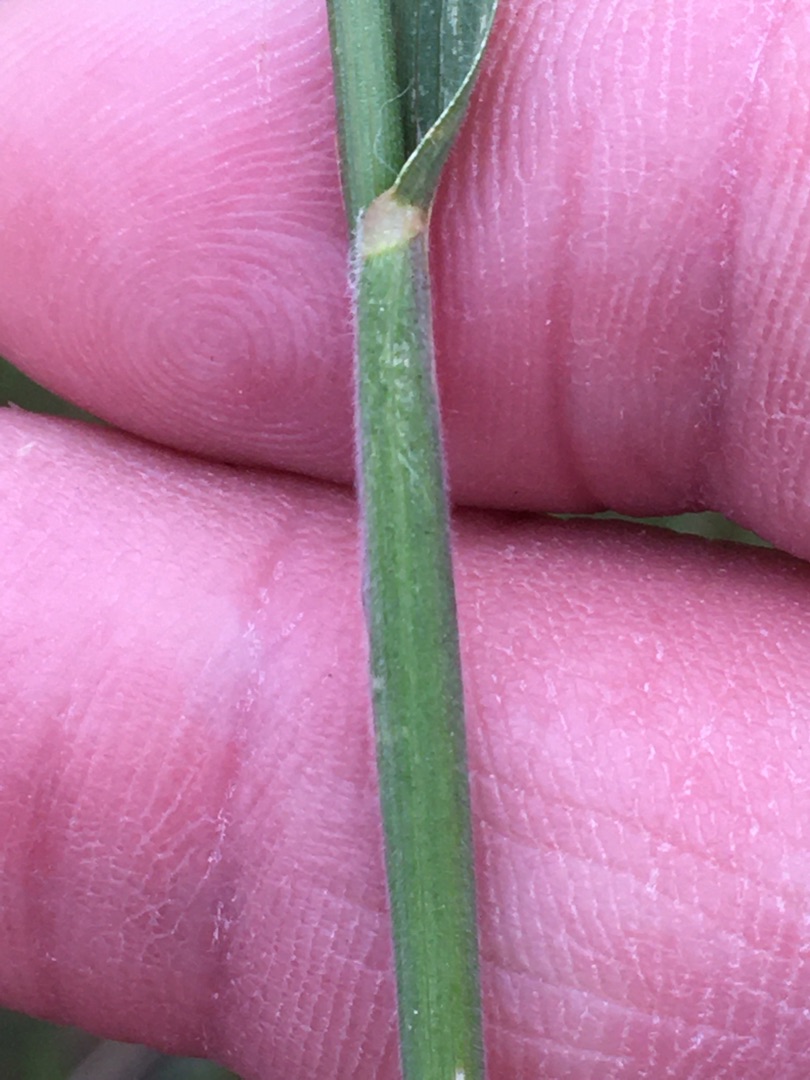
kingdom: Plantae
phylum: Tracheophyta
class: Liliopsida
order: Poales
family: Poaceae
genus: Bromus
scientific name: Bromus hordeaceus
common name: Blød hejre
